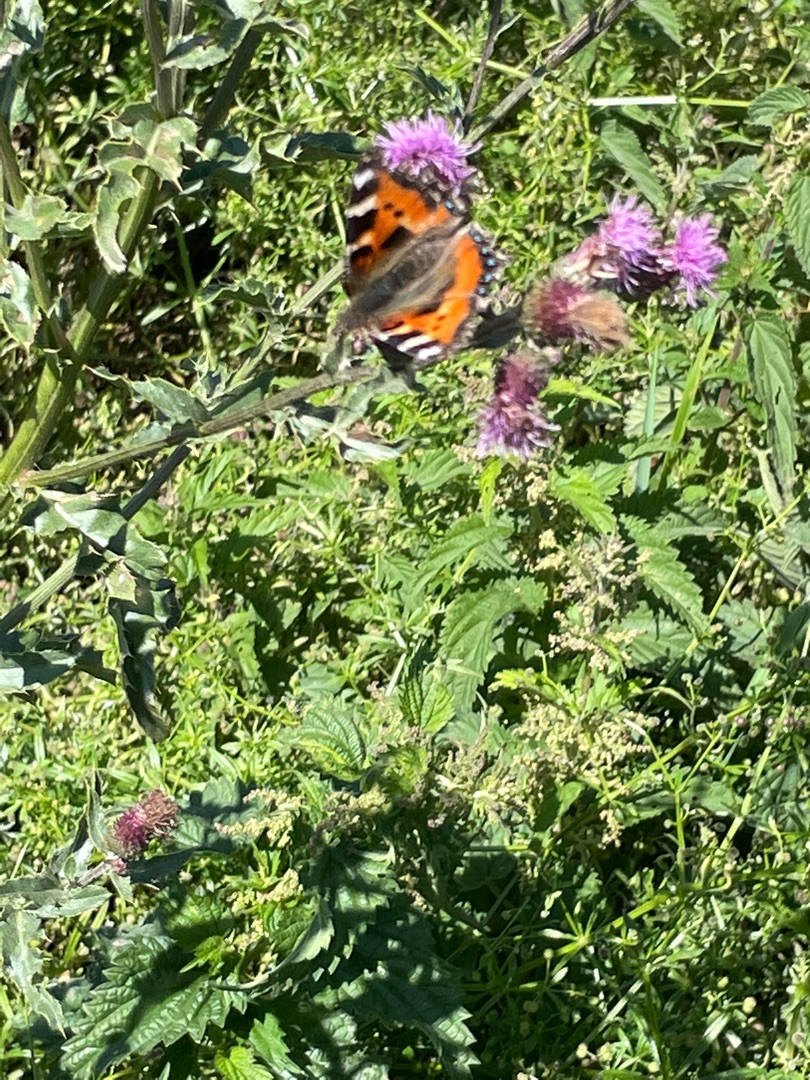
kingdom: Animalia
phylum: Arthropoda
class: Insecta
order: Lepidoptera
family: Nymphalidae
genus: Aglais
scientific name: Aglais urticae
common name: Nældens takvinge
